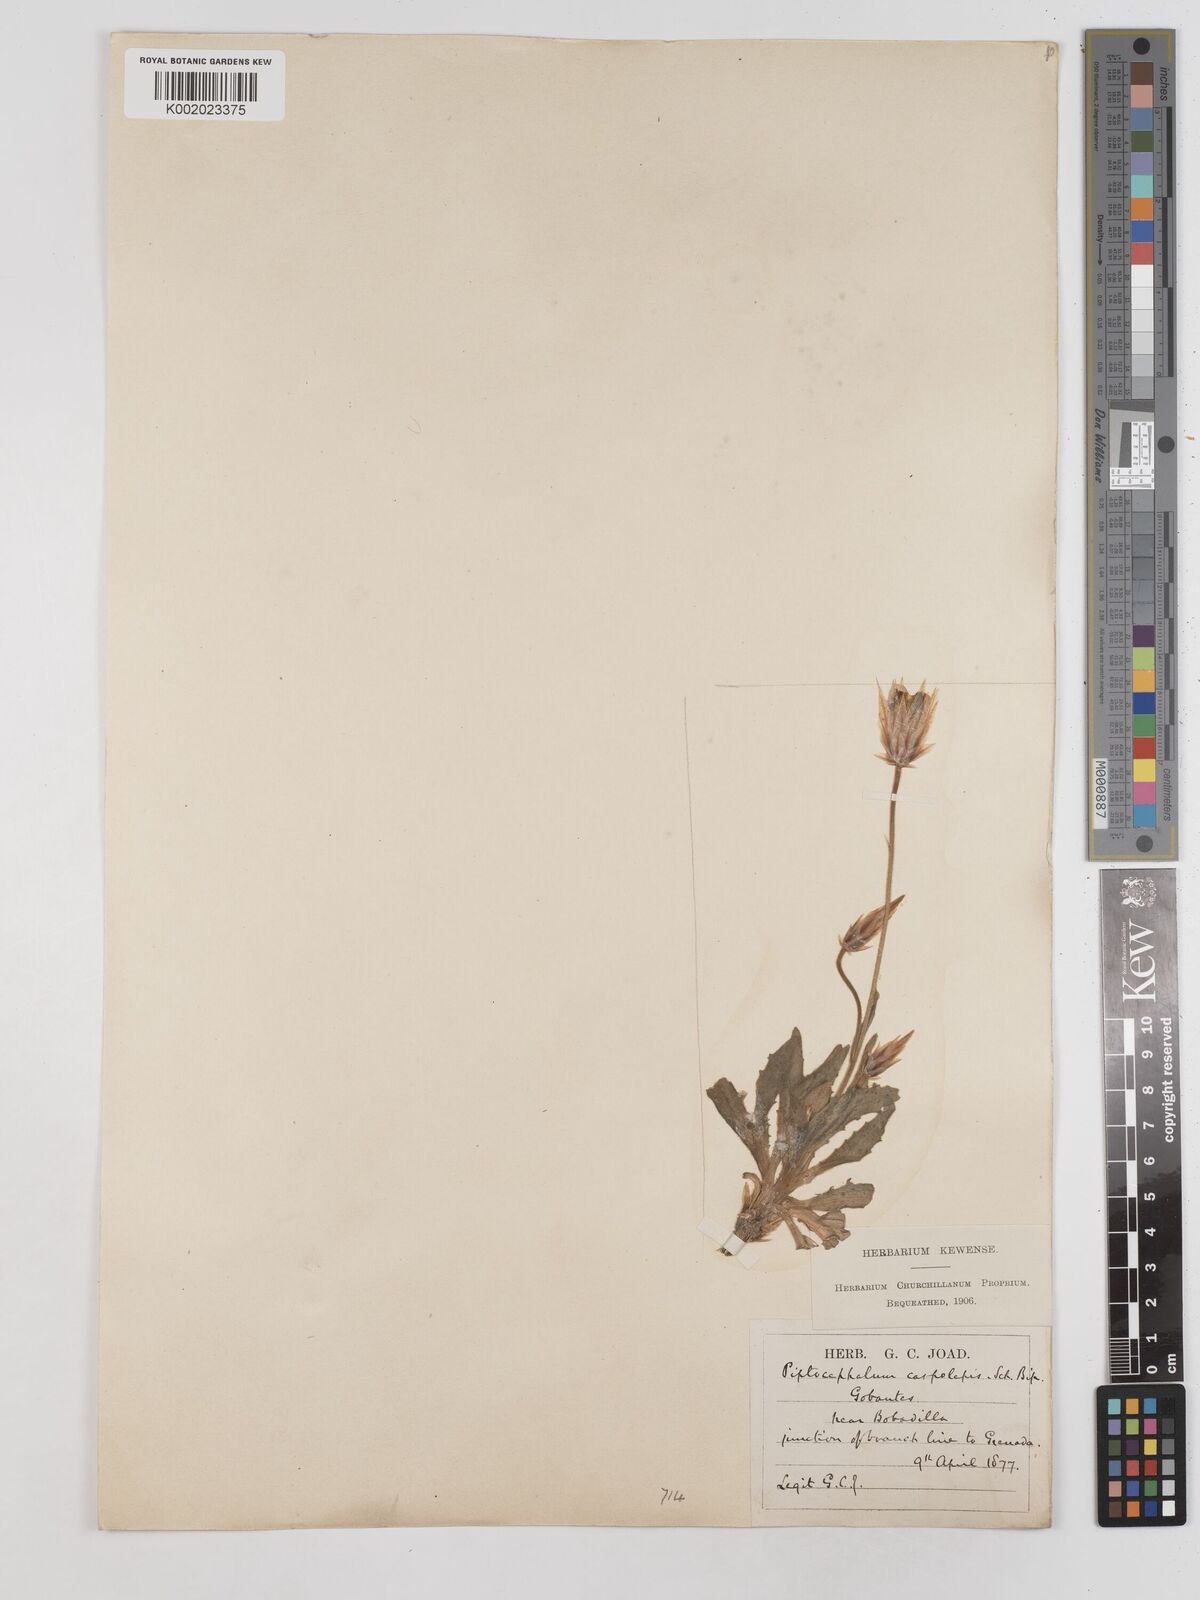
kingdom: Plantae
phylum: Tracheophyta
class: Magnoliopsida
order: Asterales
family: Asteraceae
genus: Catananche
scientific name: Catananche lutea
